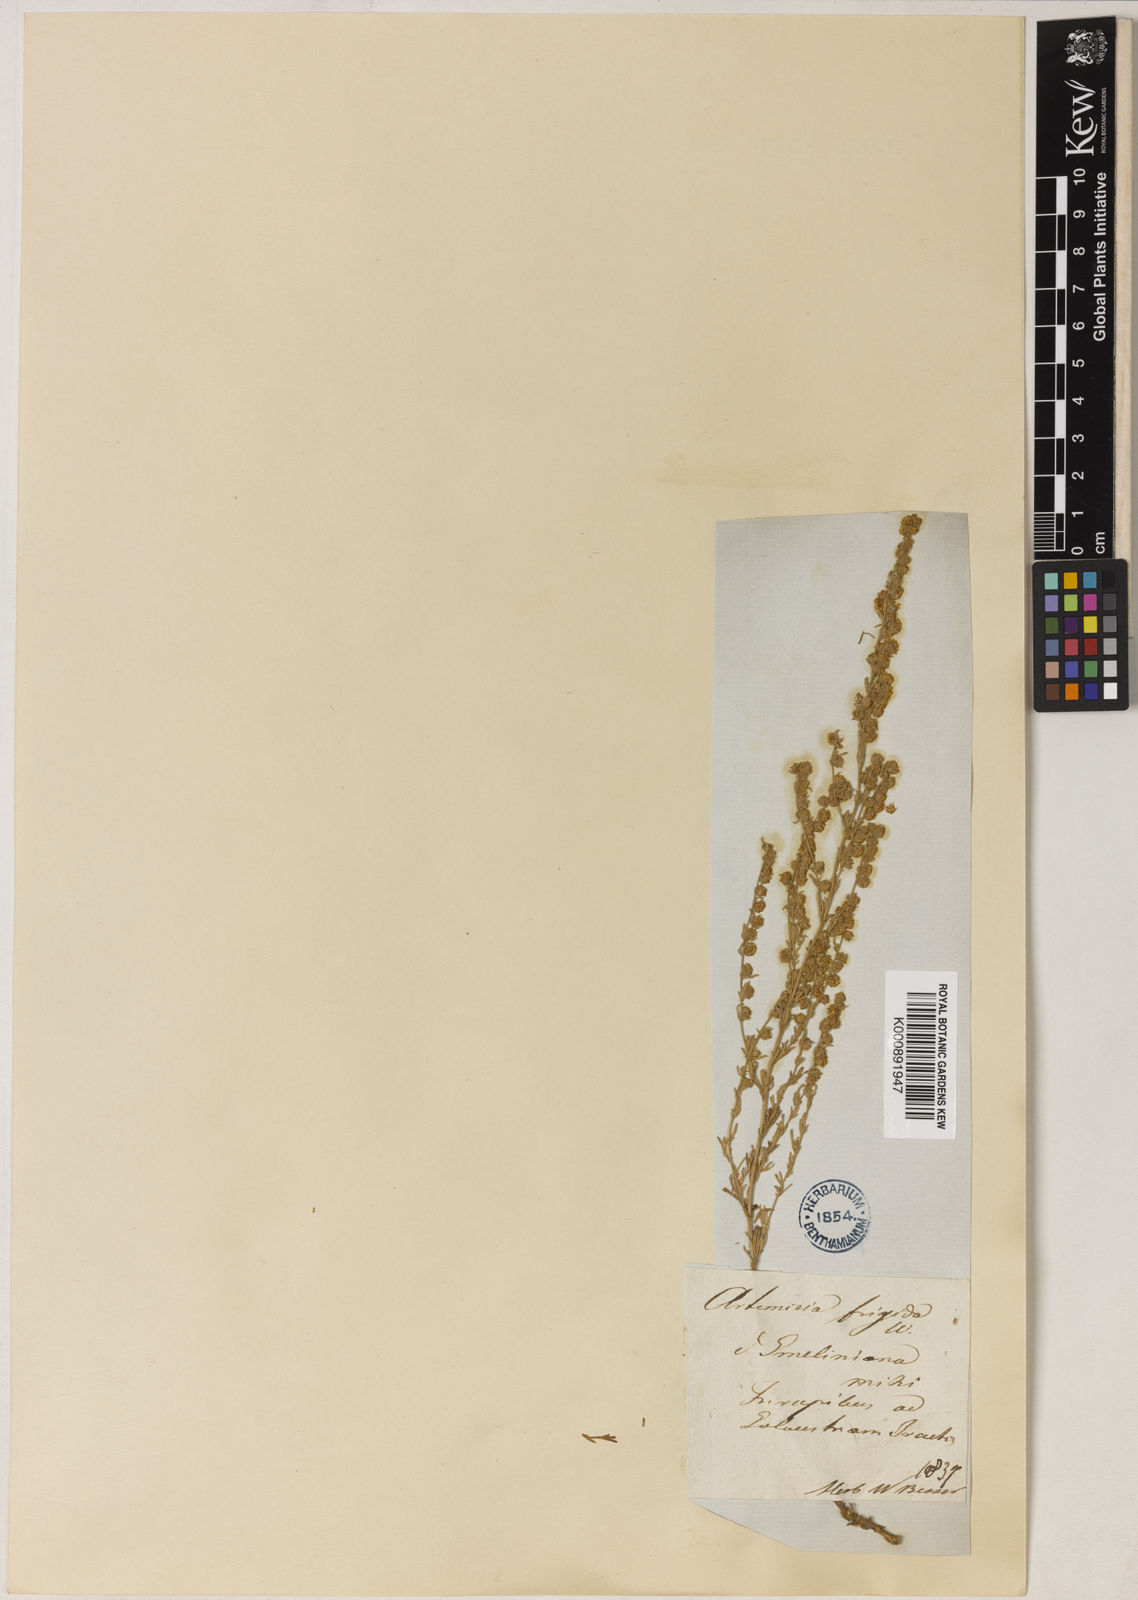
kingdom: Plantae
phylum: Tracheophyta
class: Magnoliopsida
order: Asterales
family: Asteraceae
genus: Artemisia
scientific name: Artemisia frigida
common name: Prairie sagewort
